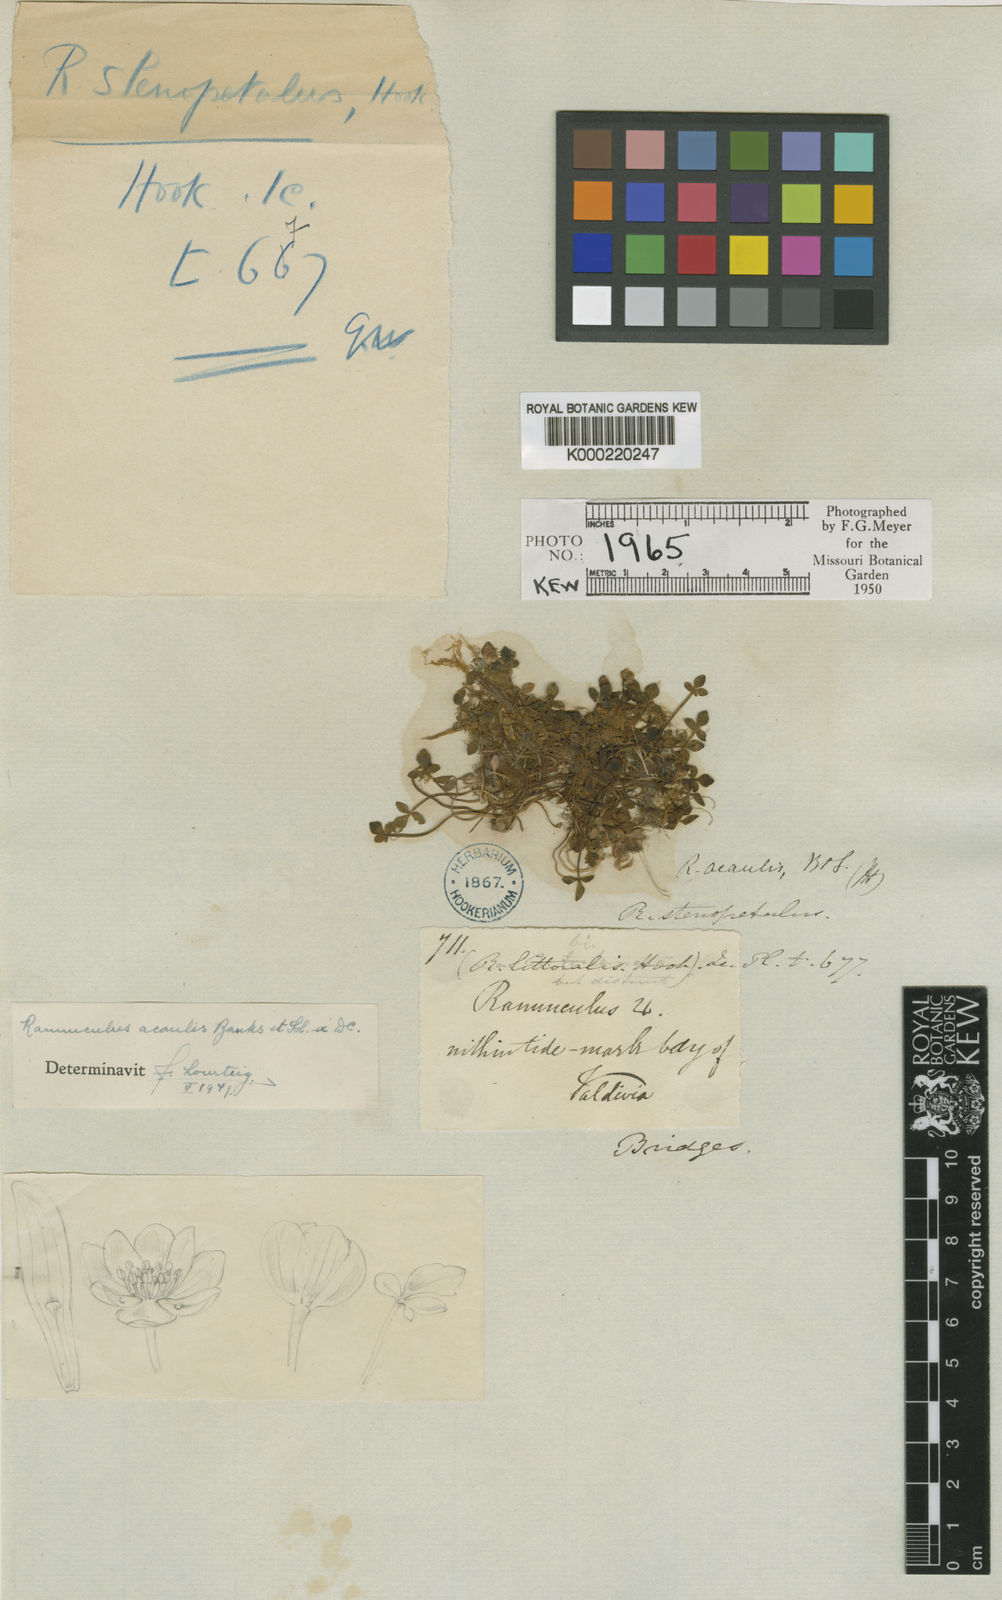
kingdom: Plantae
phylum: Tracheophyta
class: Magnoliopsida
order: Ranunculales
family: Ranunculaceae
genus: Ranunculus
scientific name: Ranunculus acaulis
